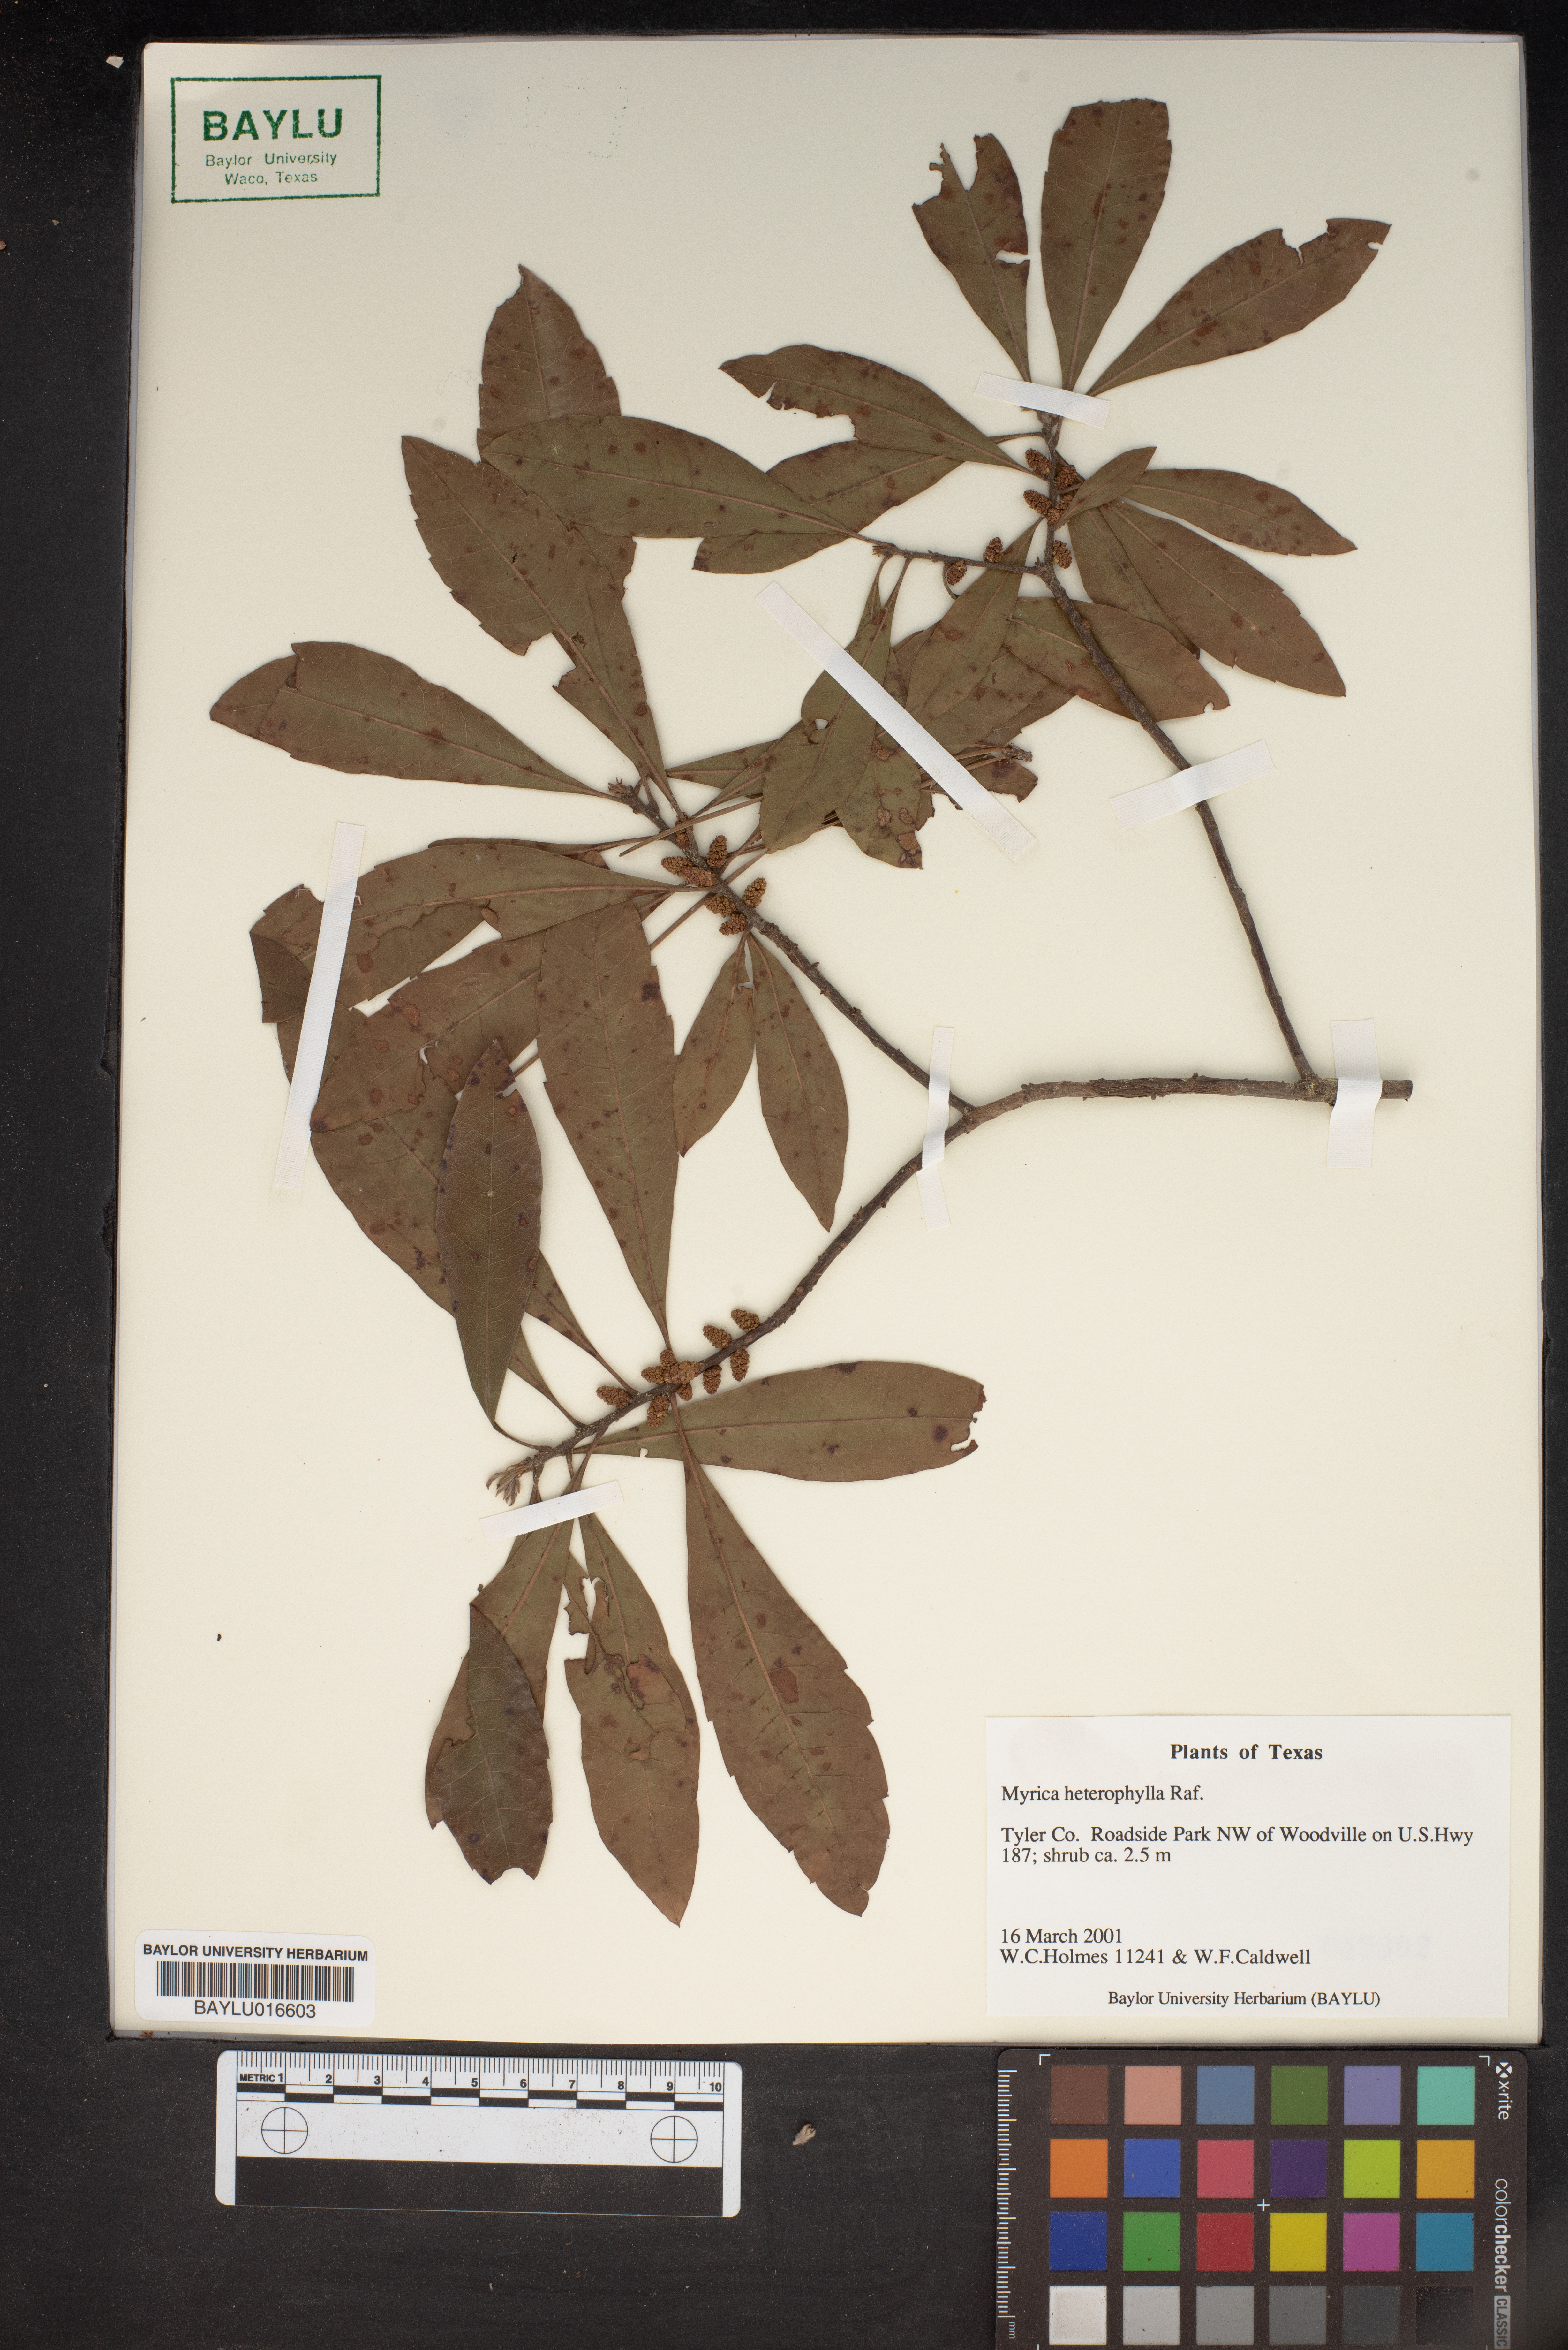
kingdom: Plantae
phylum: Tracheophyta
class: Magnoliopsida
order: Fagales
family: Myricaceae
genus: Morella
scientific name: Morella caroliniensis
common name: Evergreen bayberry
